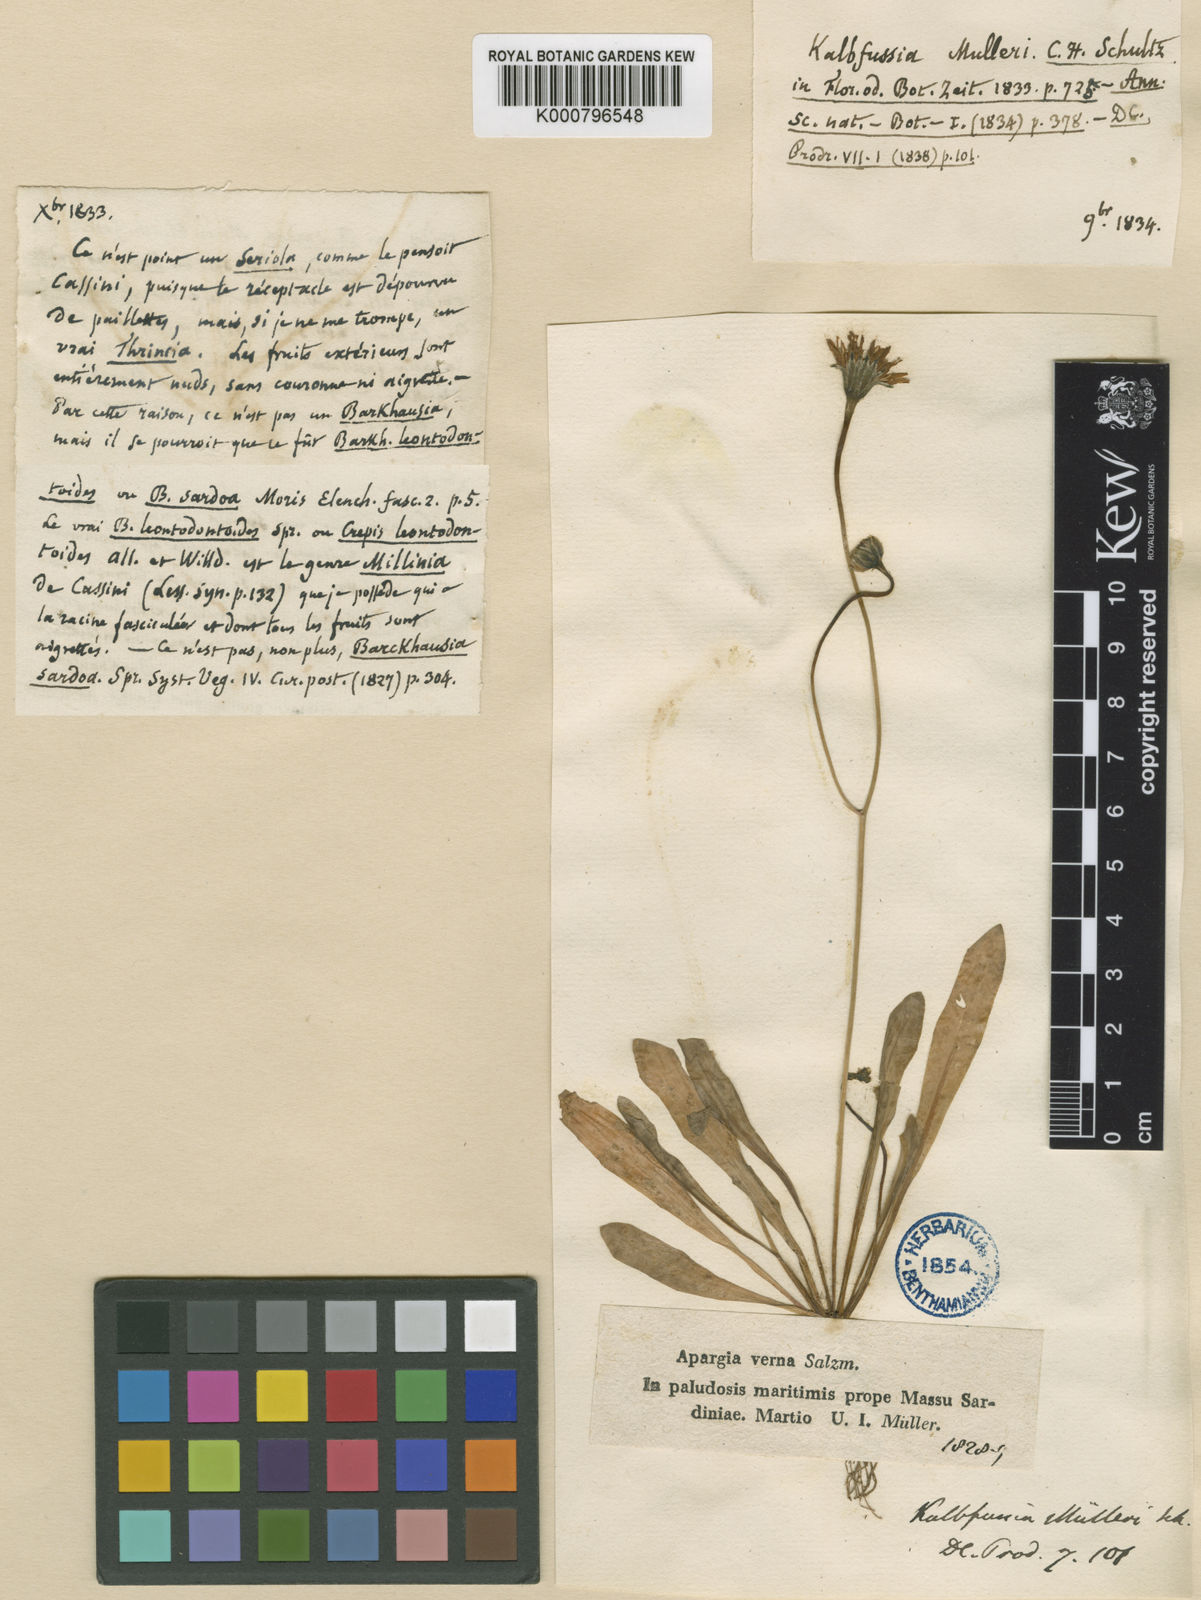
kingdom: Plantae
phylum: Tracheophyta
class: Magnoliopsida
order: Asterales
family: Asteraceae
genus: Scorzoneroides
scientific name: Scorzoneroides muelleri
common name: Daisy
